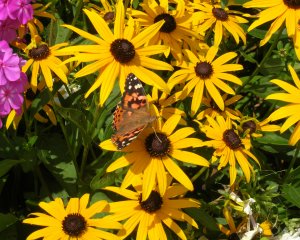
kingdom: Animalia
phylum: Arthropoda
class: Insecta
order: Lepidoptera
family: Nymphalidae
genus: Vanessa
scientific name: Vanessa cardui
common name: Painted Lady
